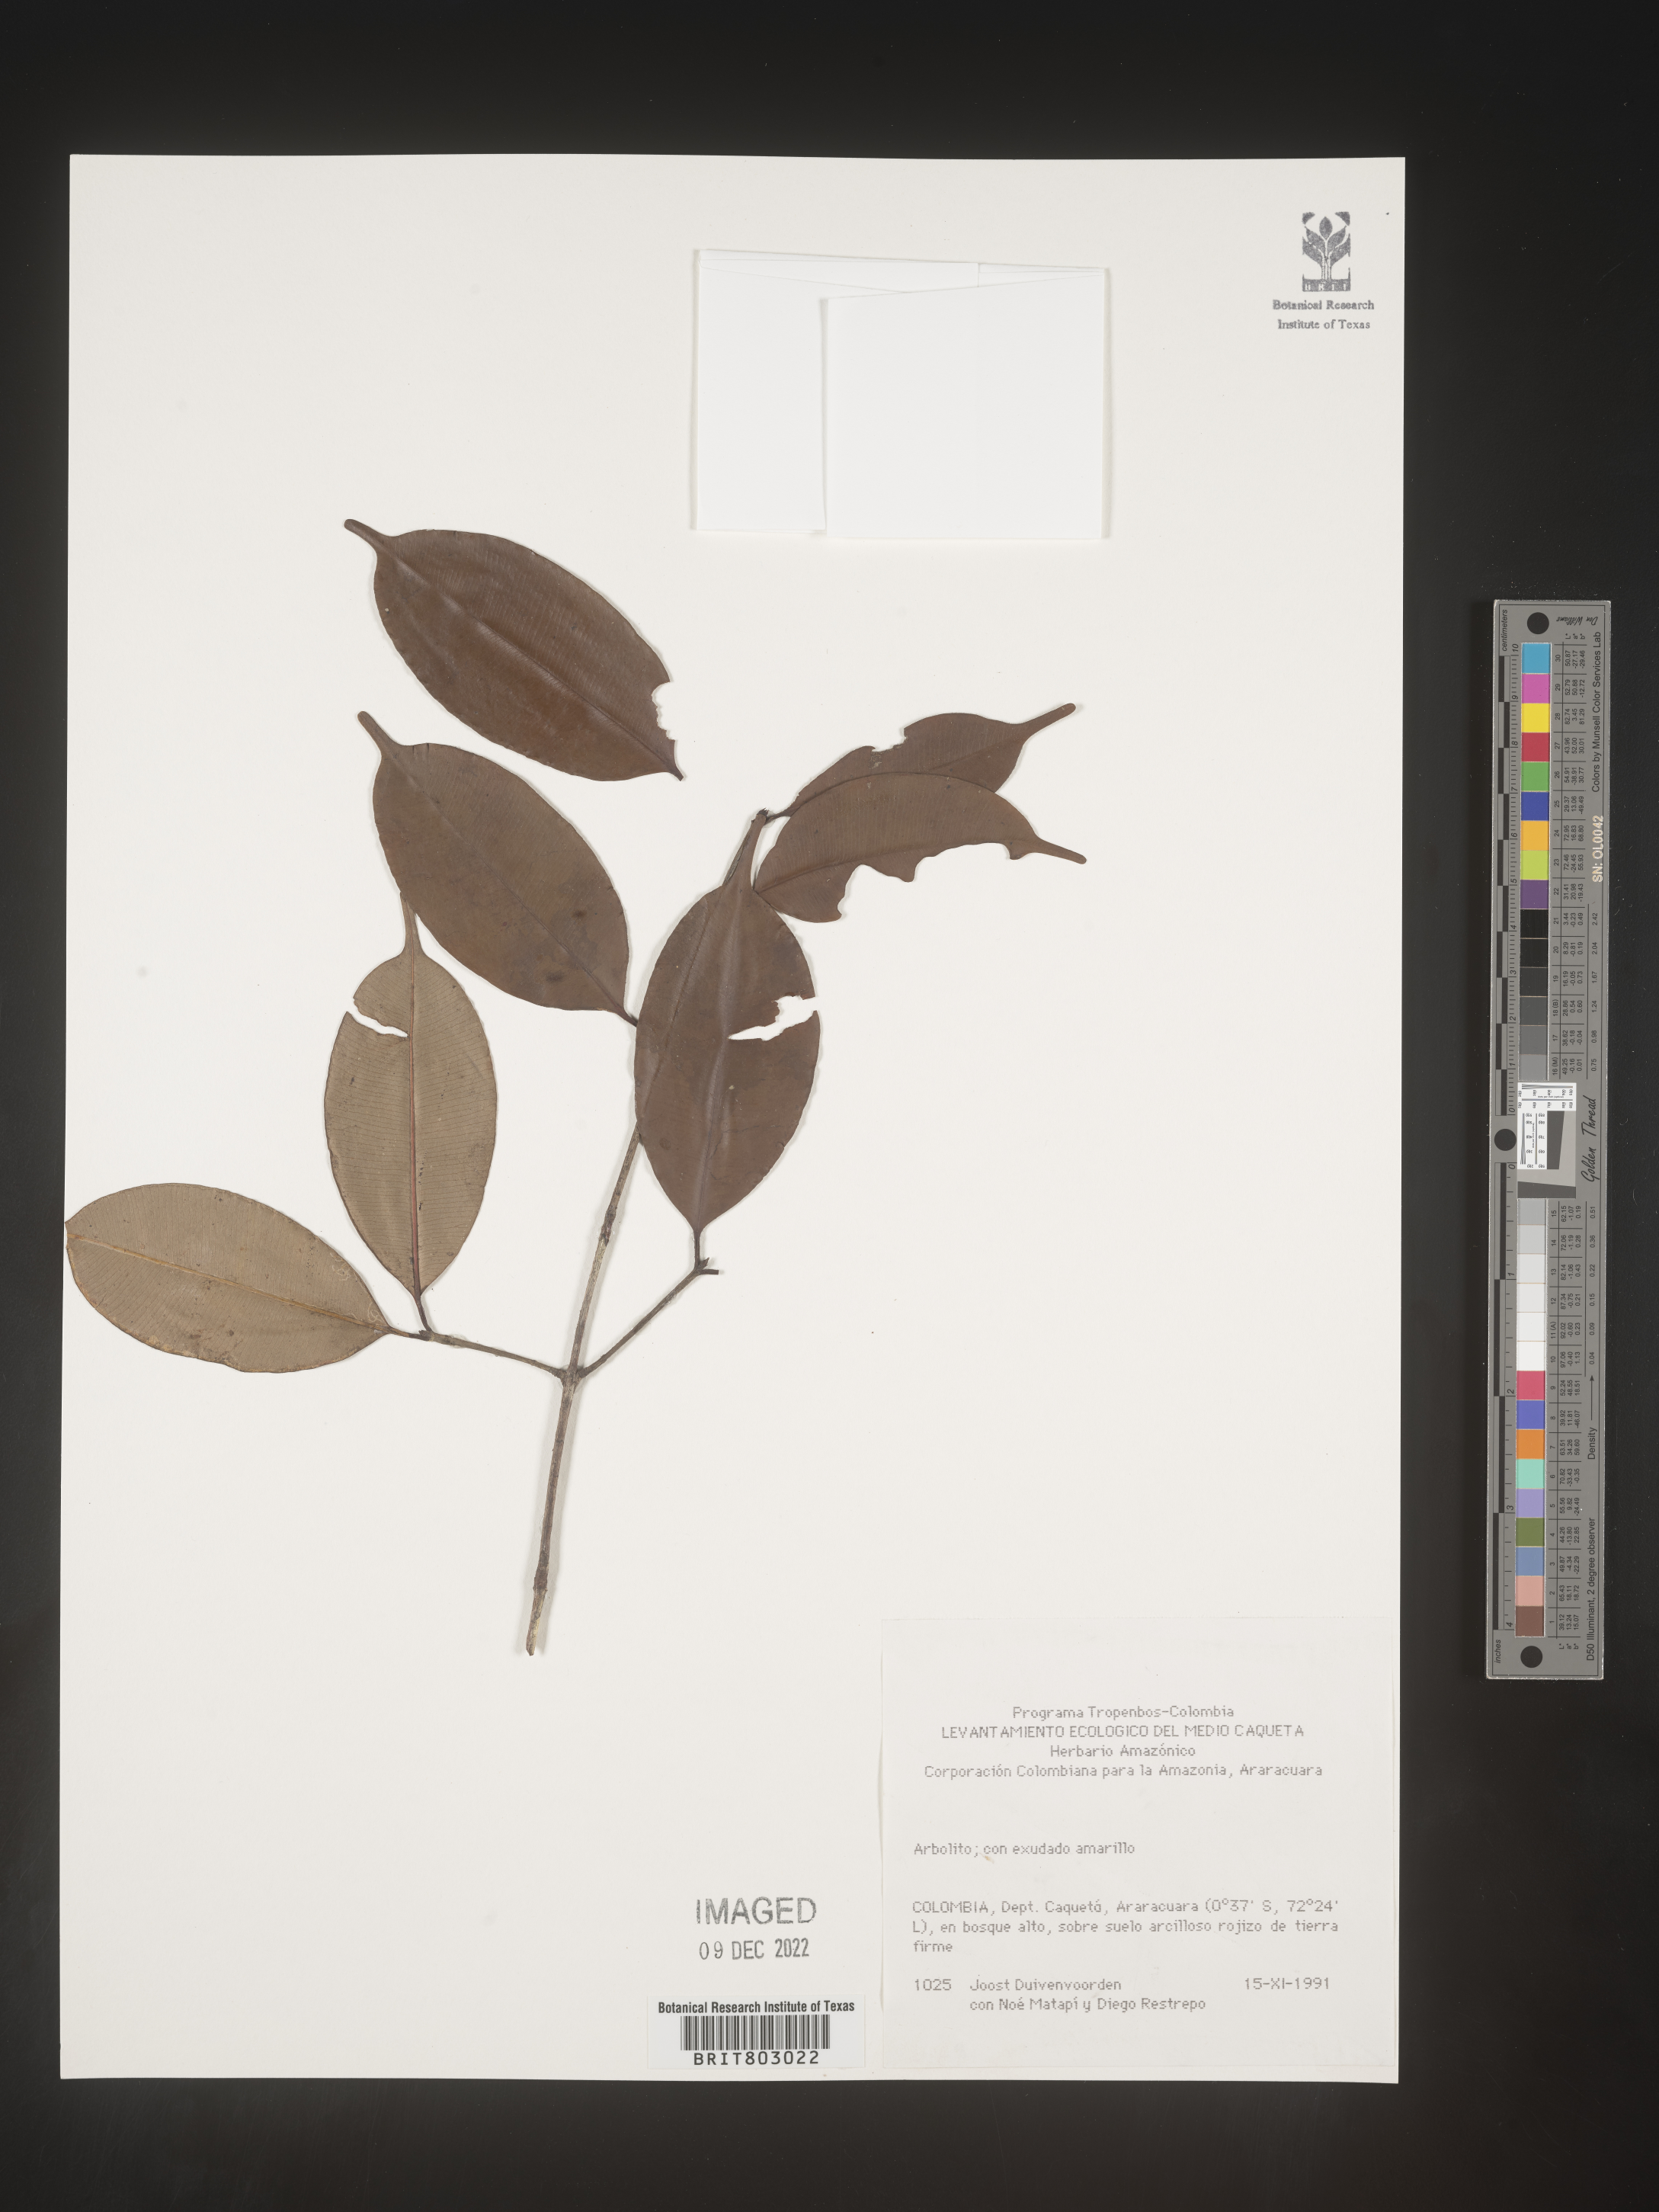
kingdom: Plantae
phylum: Tracheophyta
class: Magnoliopsida
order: Malpighiales
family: Clusiaceae
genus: Moronobea
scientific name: Moronobea
